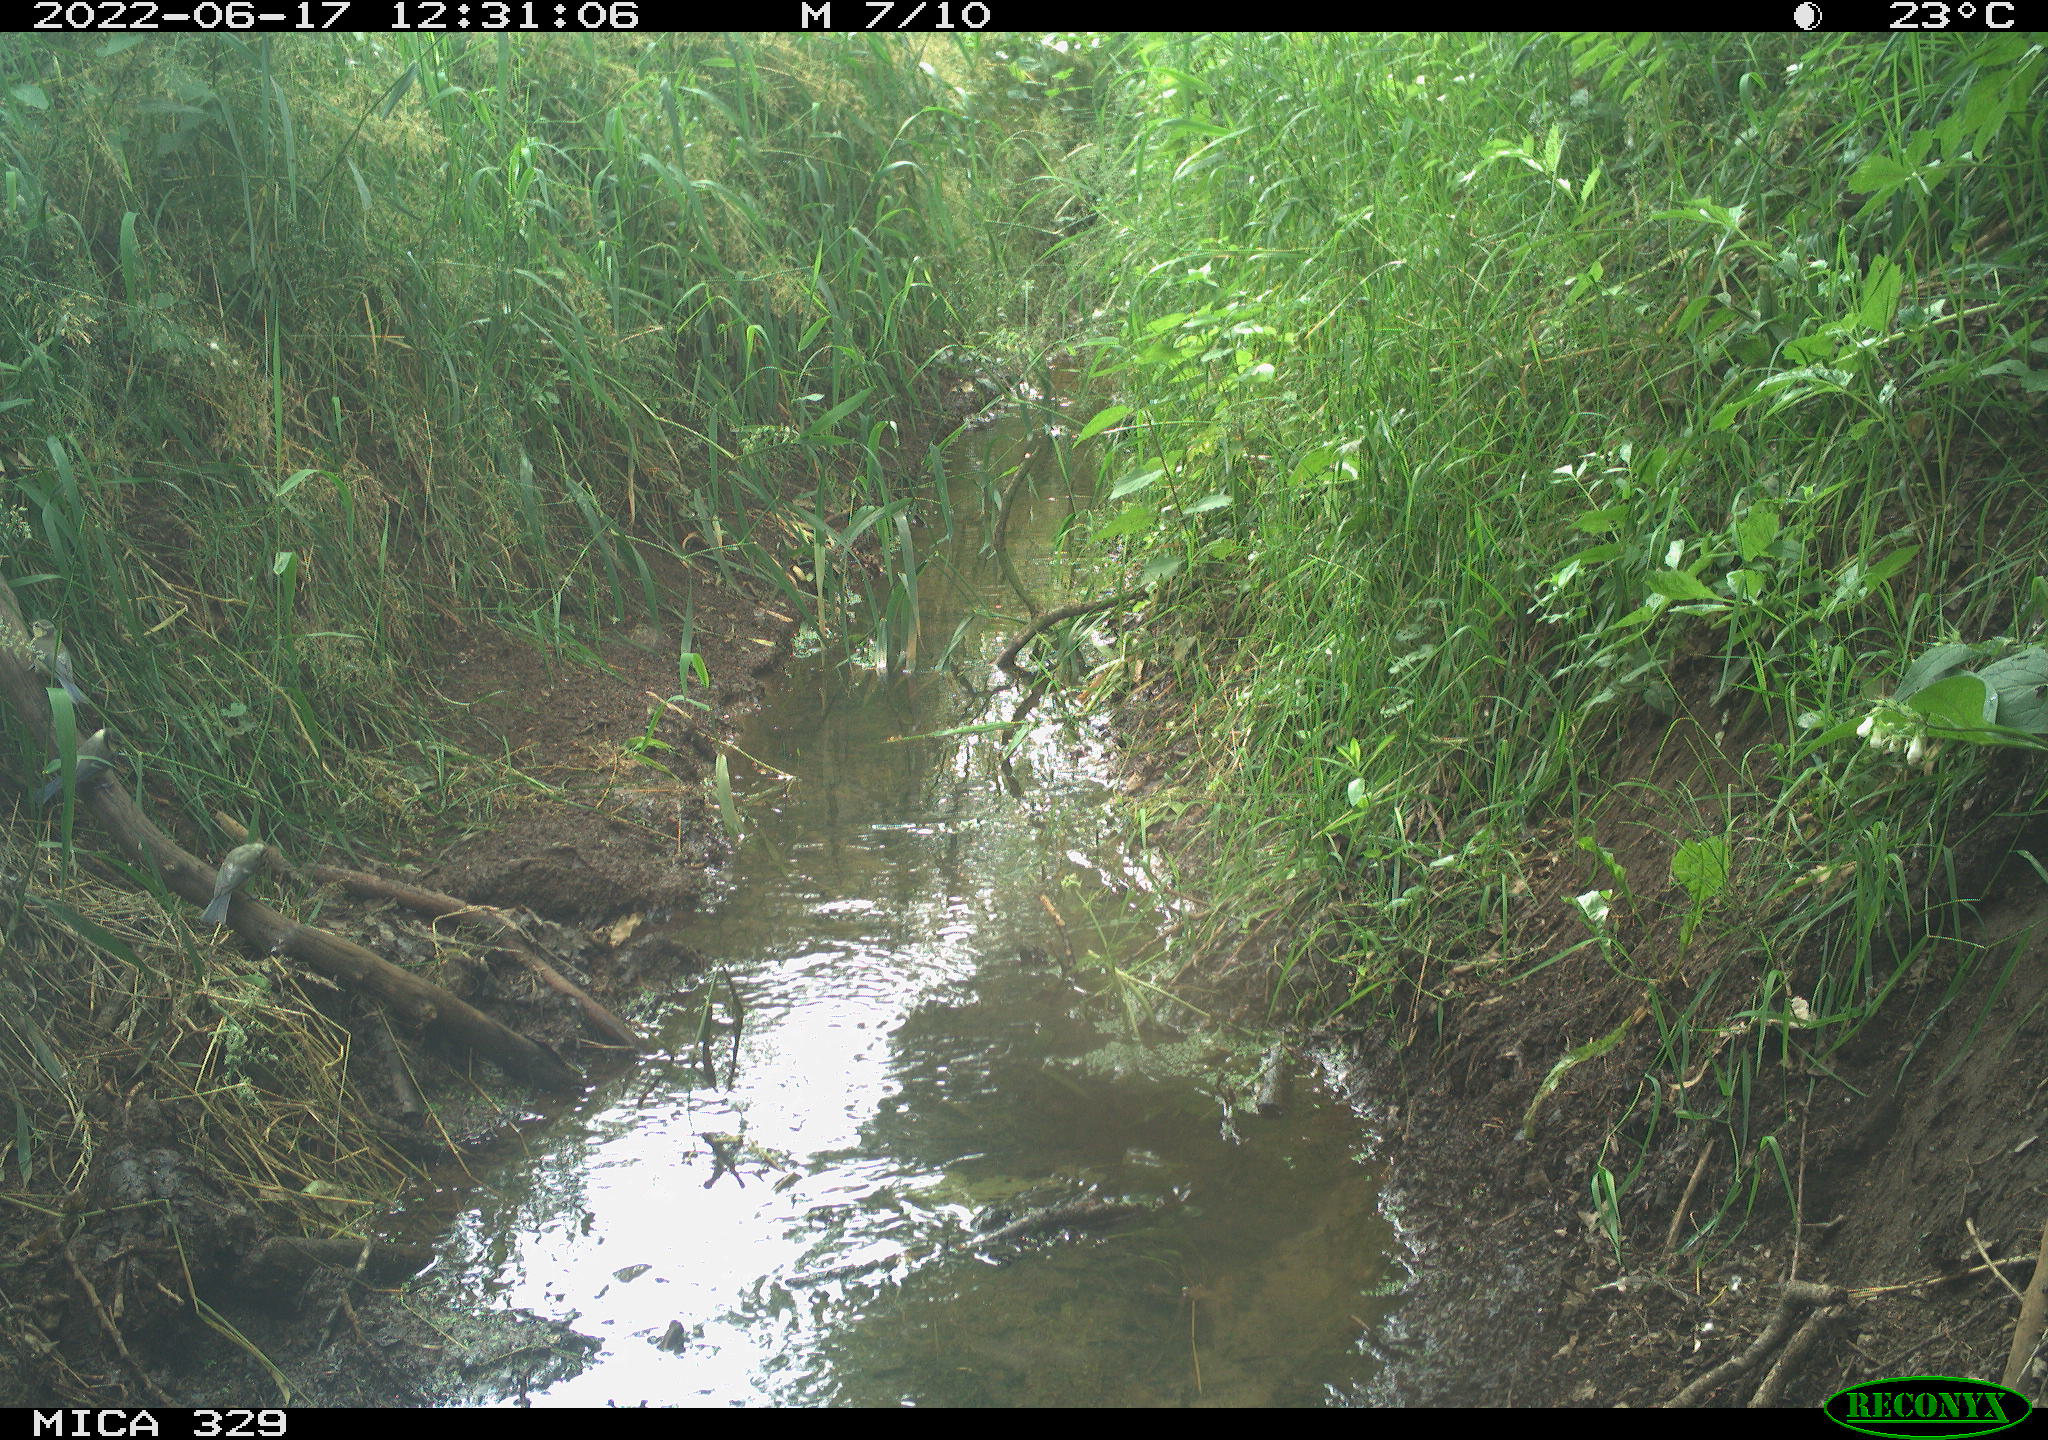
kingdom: Animalia
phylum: Chordata
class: Aves
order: Passeriformes
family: Paridae
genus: Parus
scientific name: Parus major
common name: Great tit
